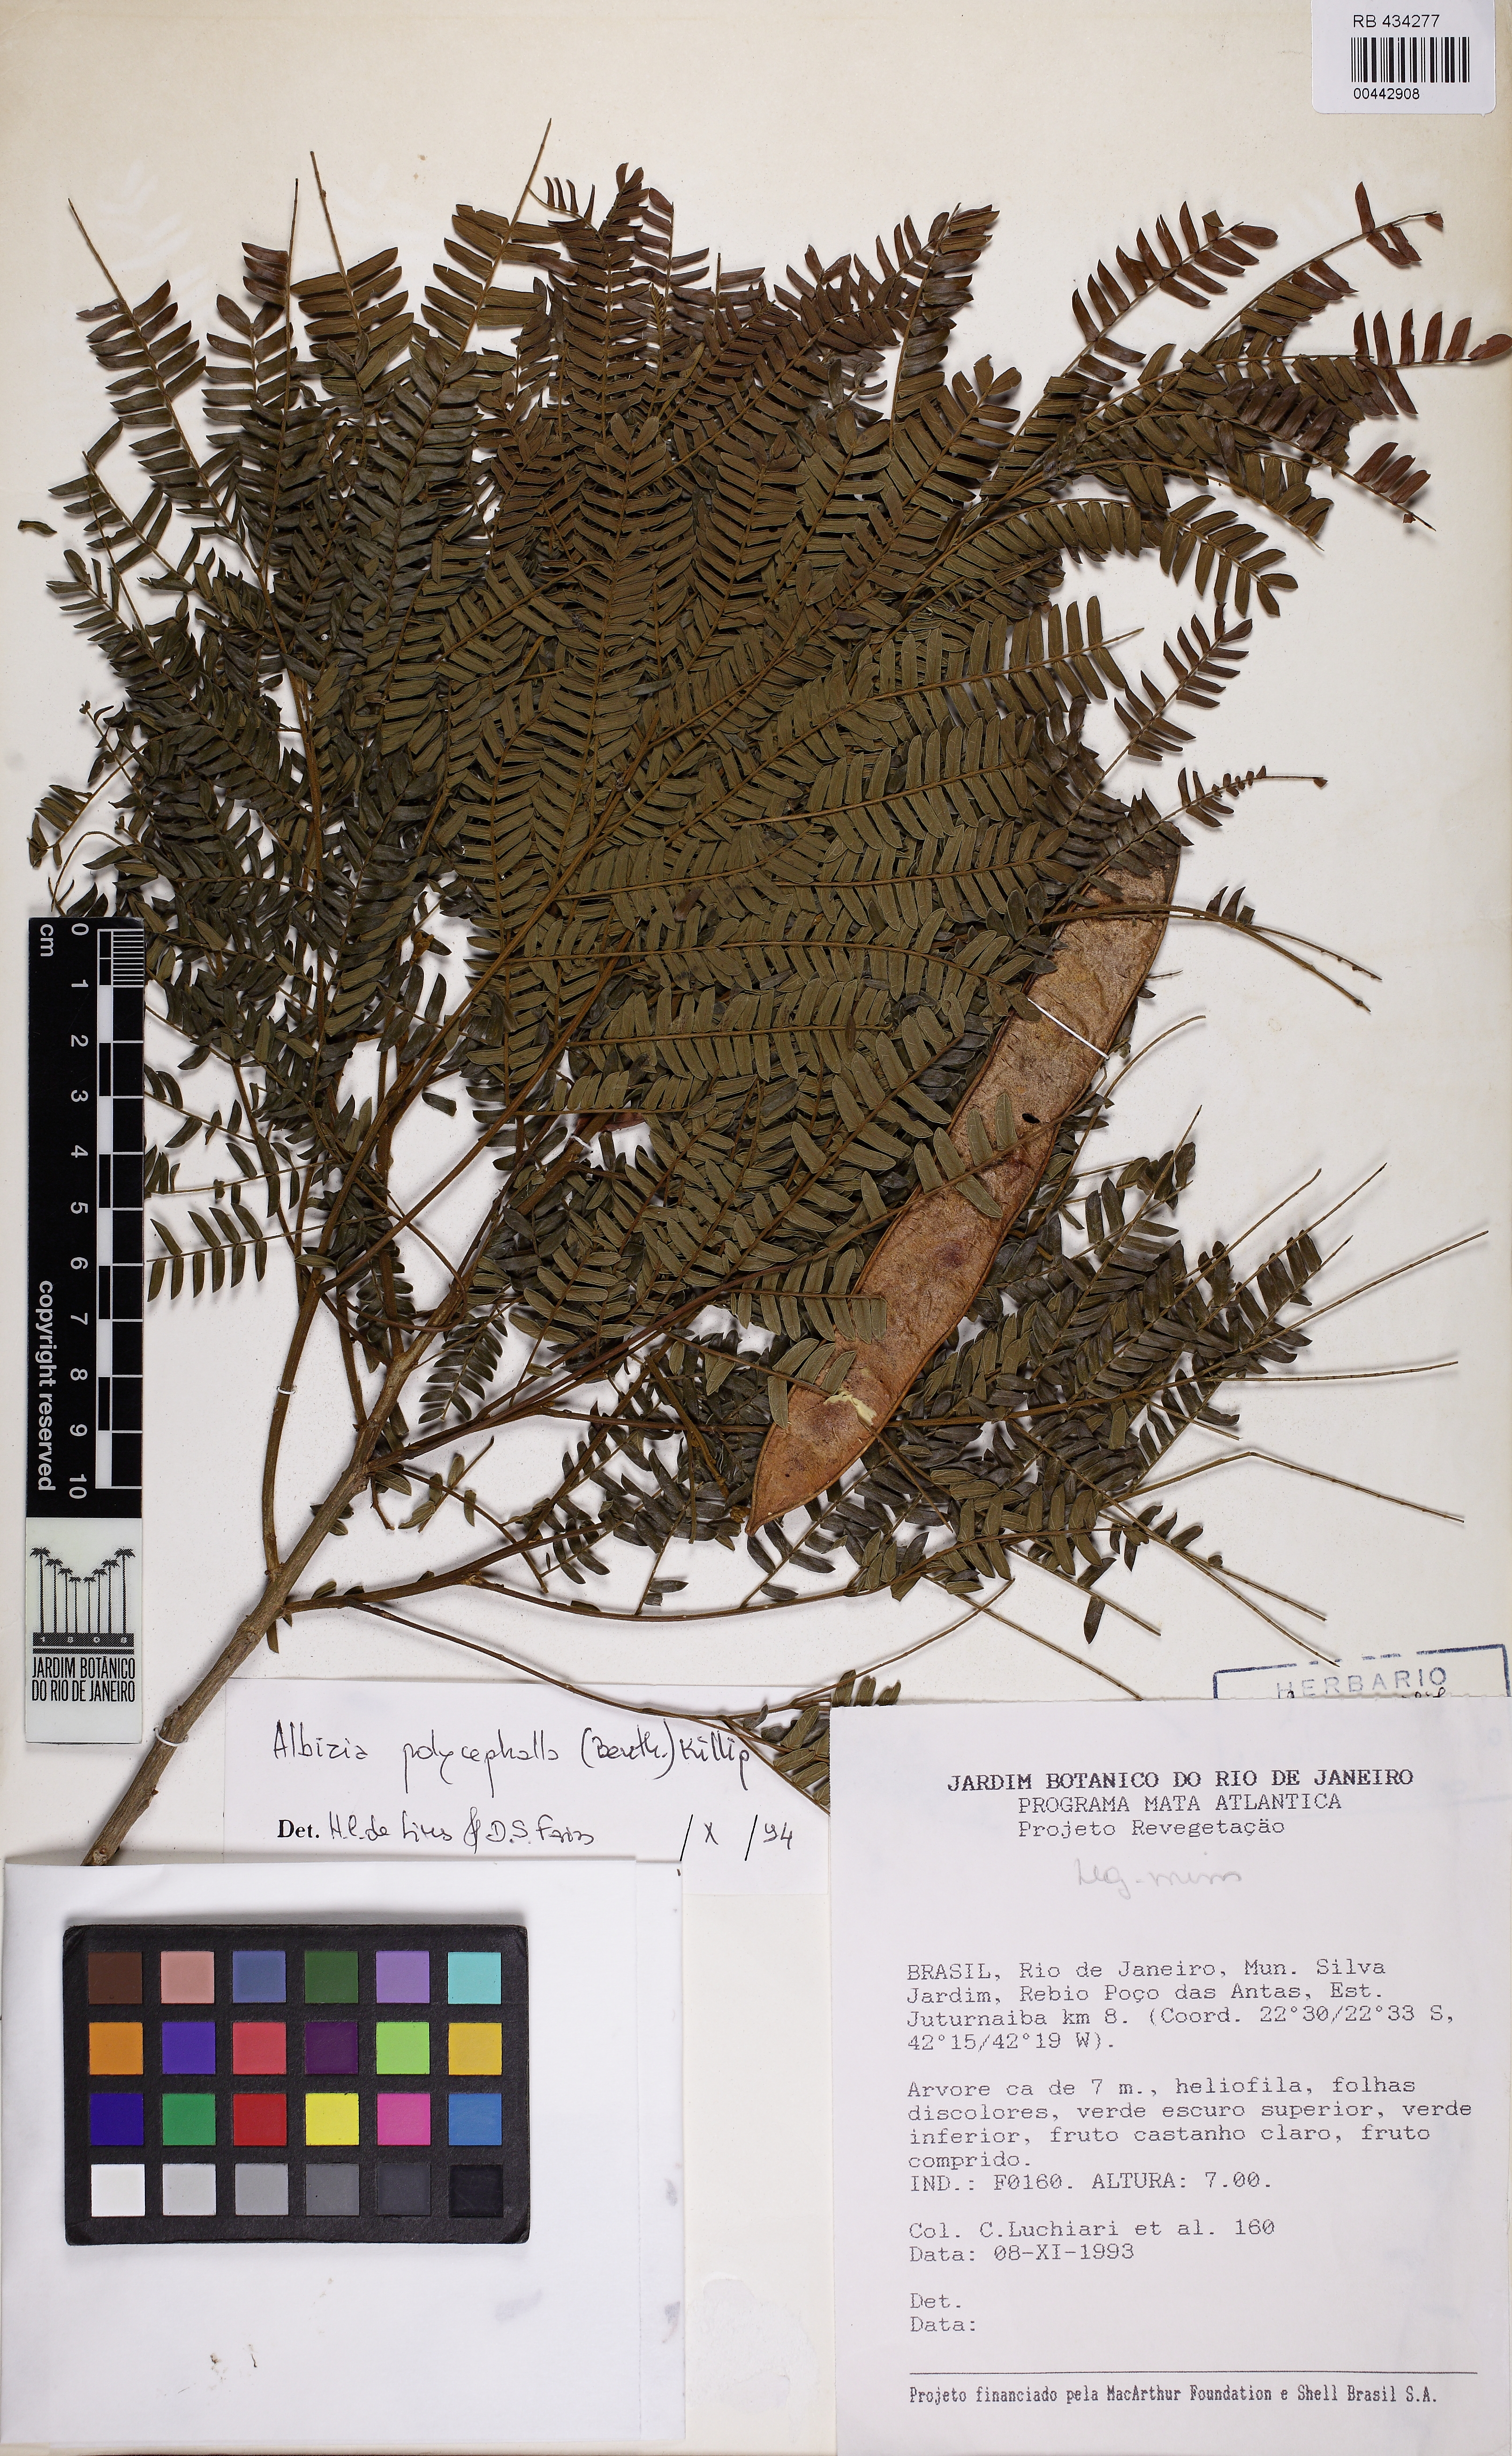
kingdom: Plantae
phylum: Tracheophyta
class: Magnoliopsida
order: Fabales
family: Fabaceae
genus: Albizia
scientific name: Albizia polycephala
